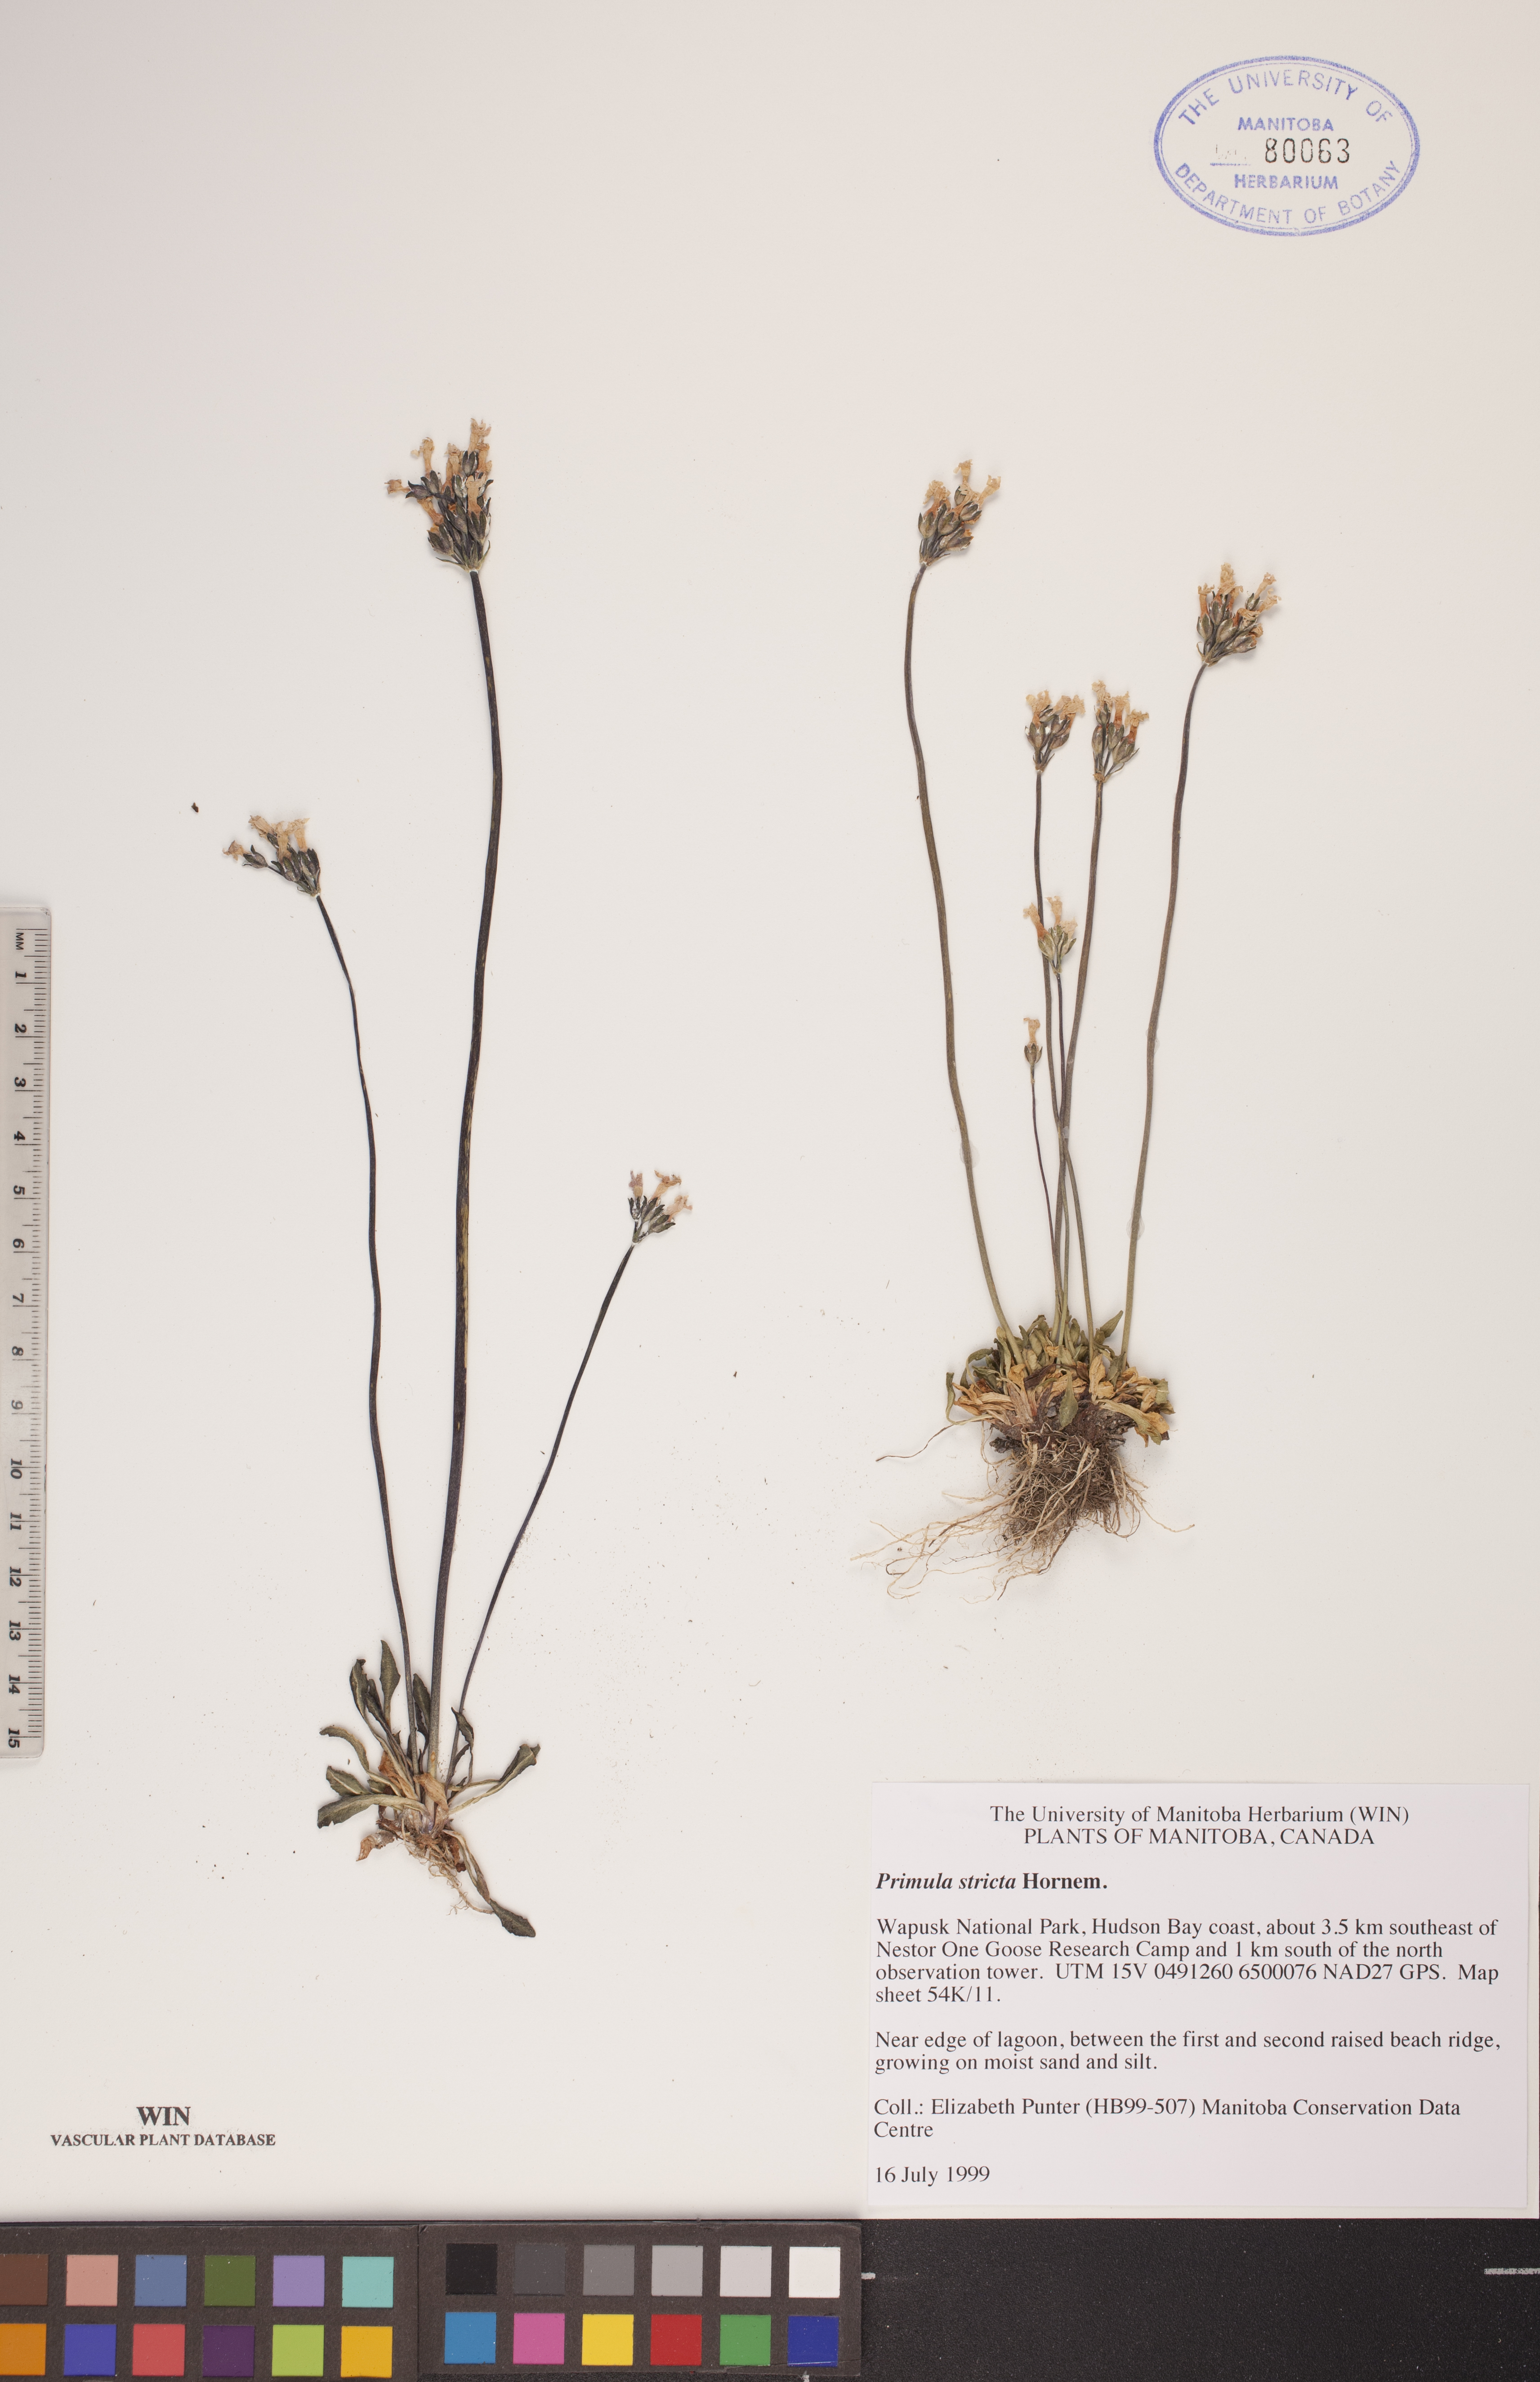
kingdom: Plantae
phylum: Tracheophyta
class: Magnoliopsida
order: Ericales
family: Primulaceae
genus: Primula
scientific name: Primula stricta
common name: Coastal primrose
